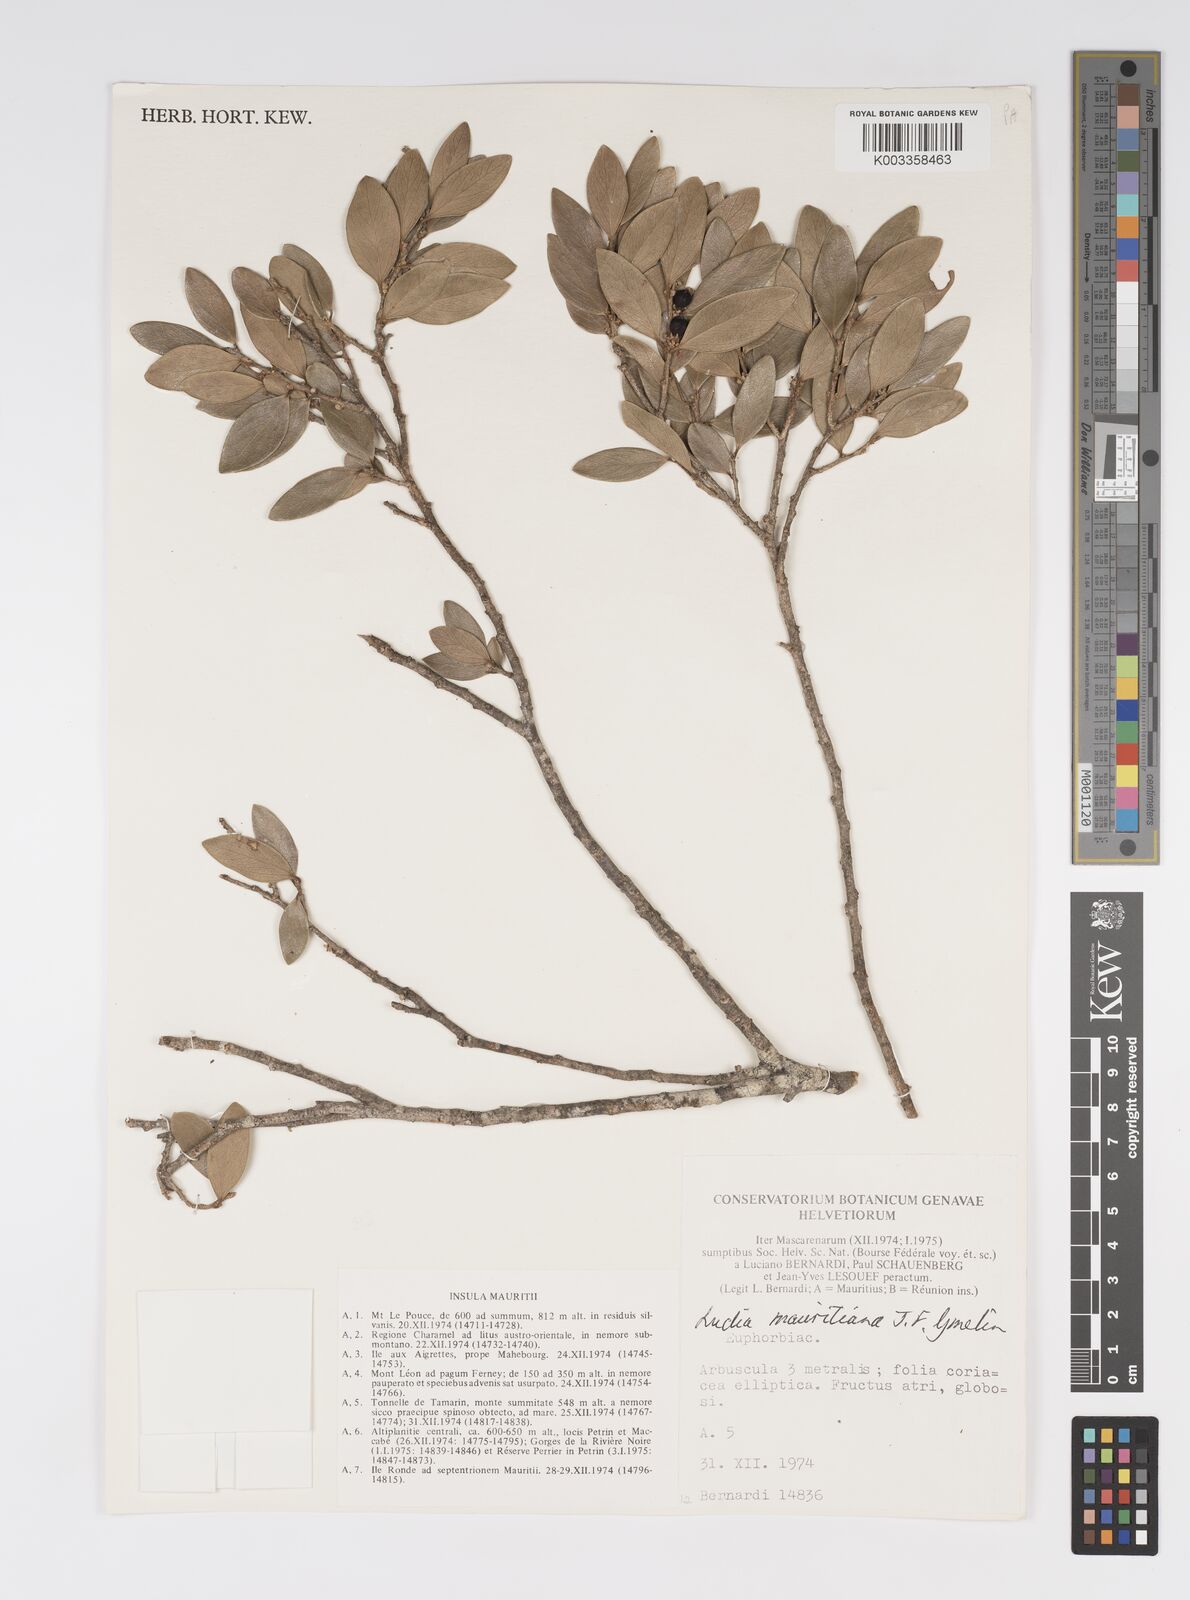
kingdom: Plantae
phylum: Tracheophyta
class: Magnoliopsida
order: Malpighiales
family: Salicaceae
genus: Ludia
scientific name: Ludia mauritiana
